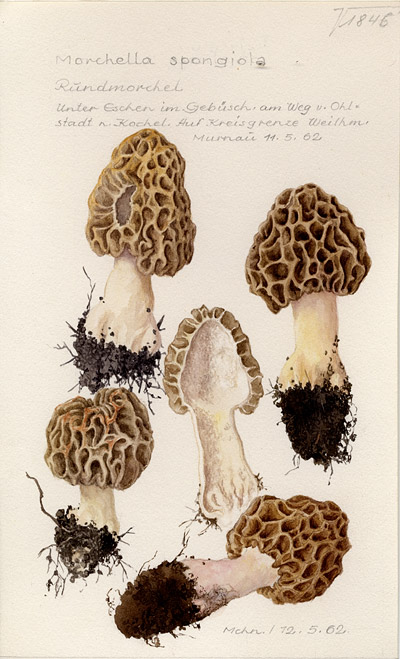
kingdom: Fungi
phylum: Ascomycota
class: Pezizomycetes
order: Pezizales
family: Morchellaceae
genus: Morchella
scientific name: Morchella esculenta
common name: Morel
